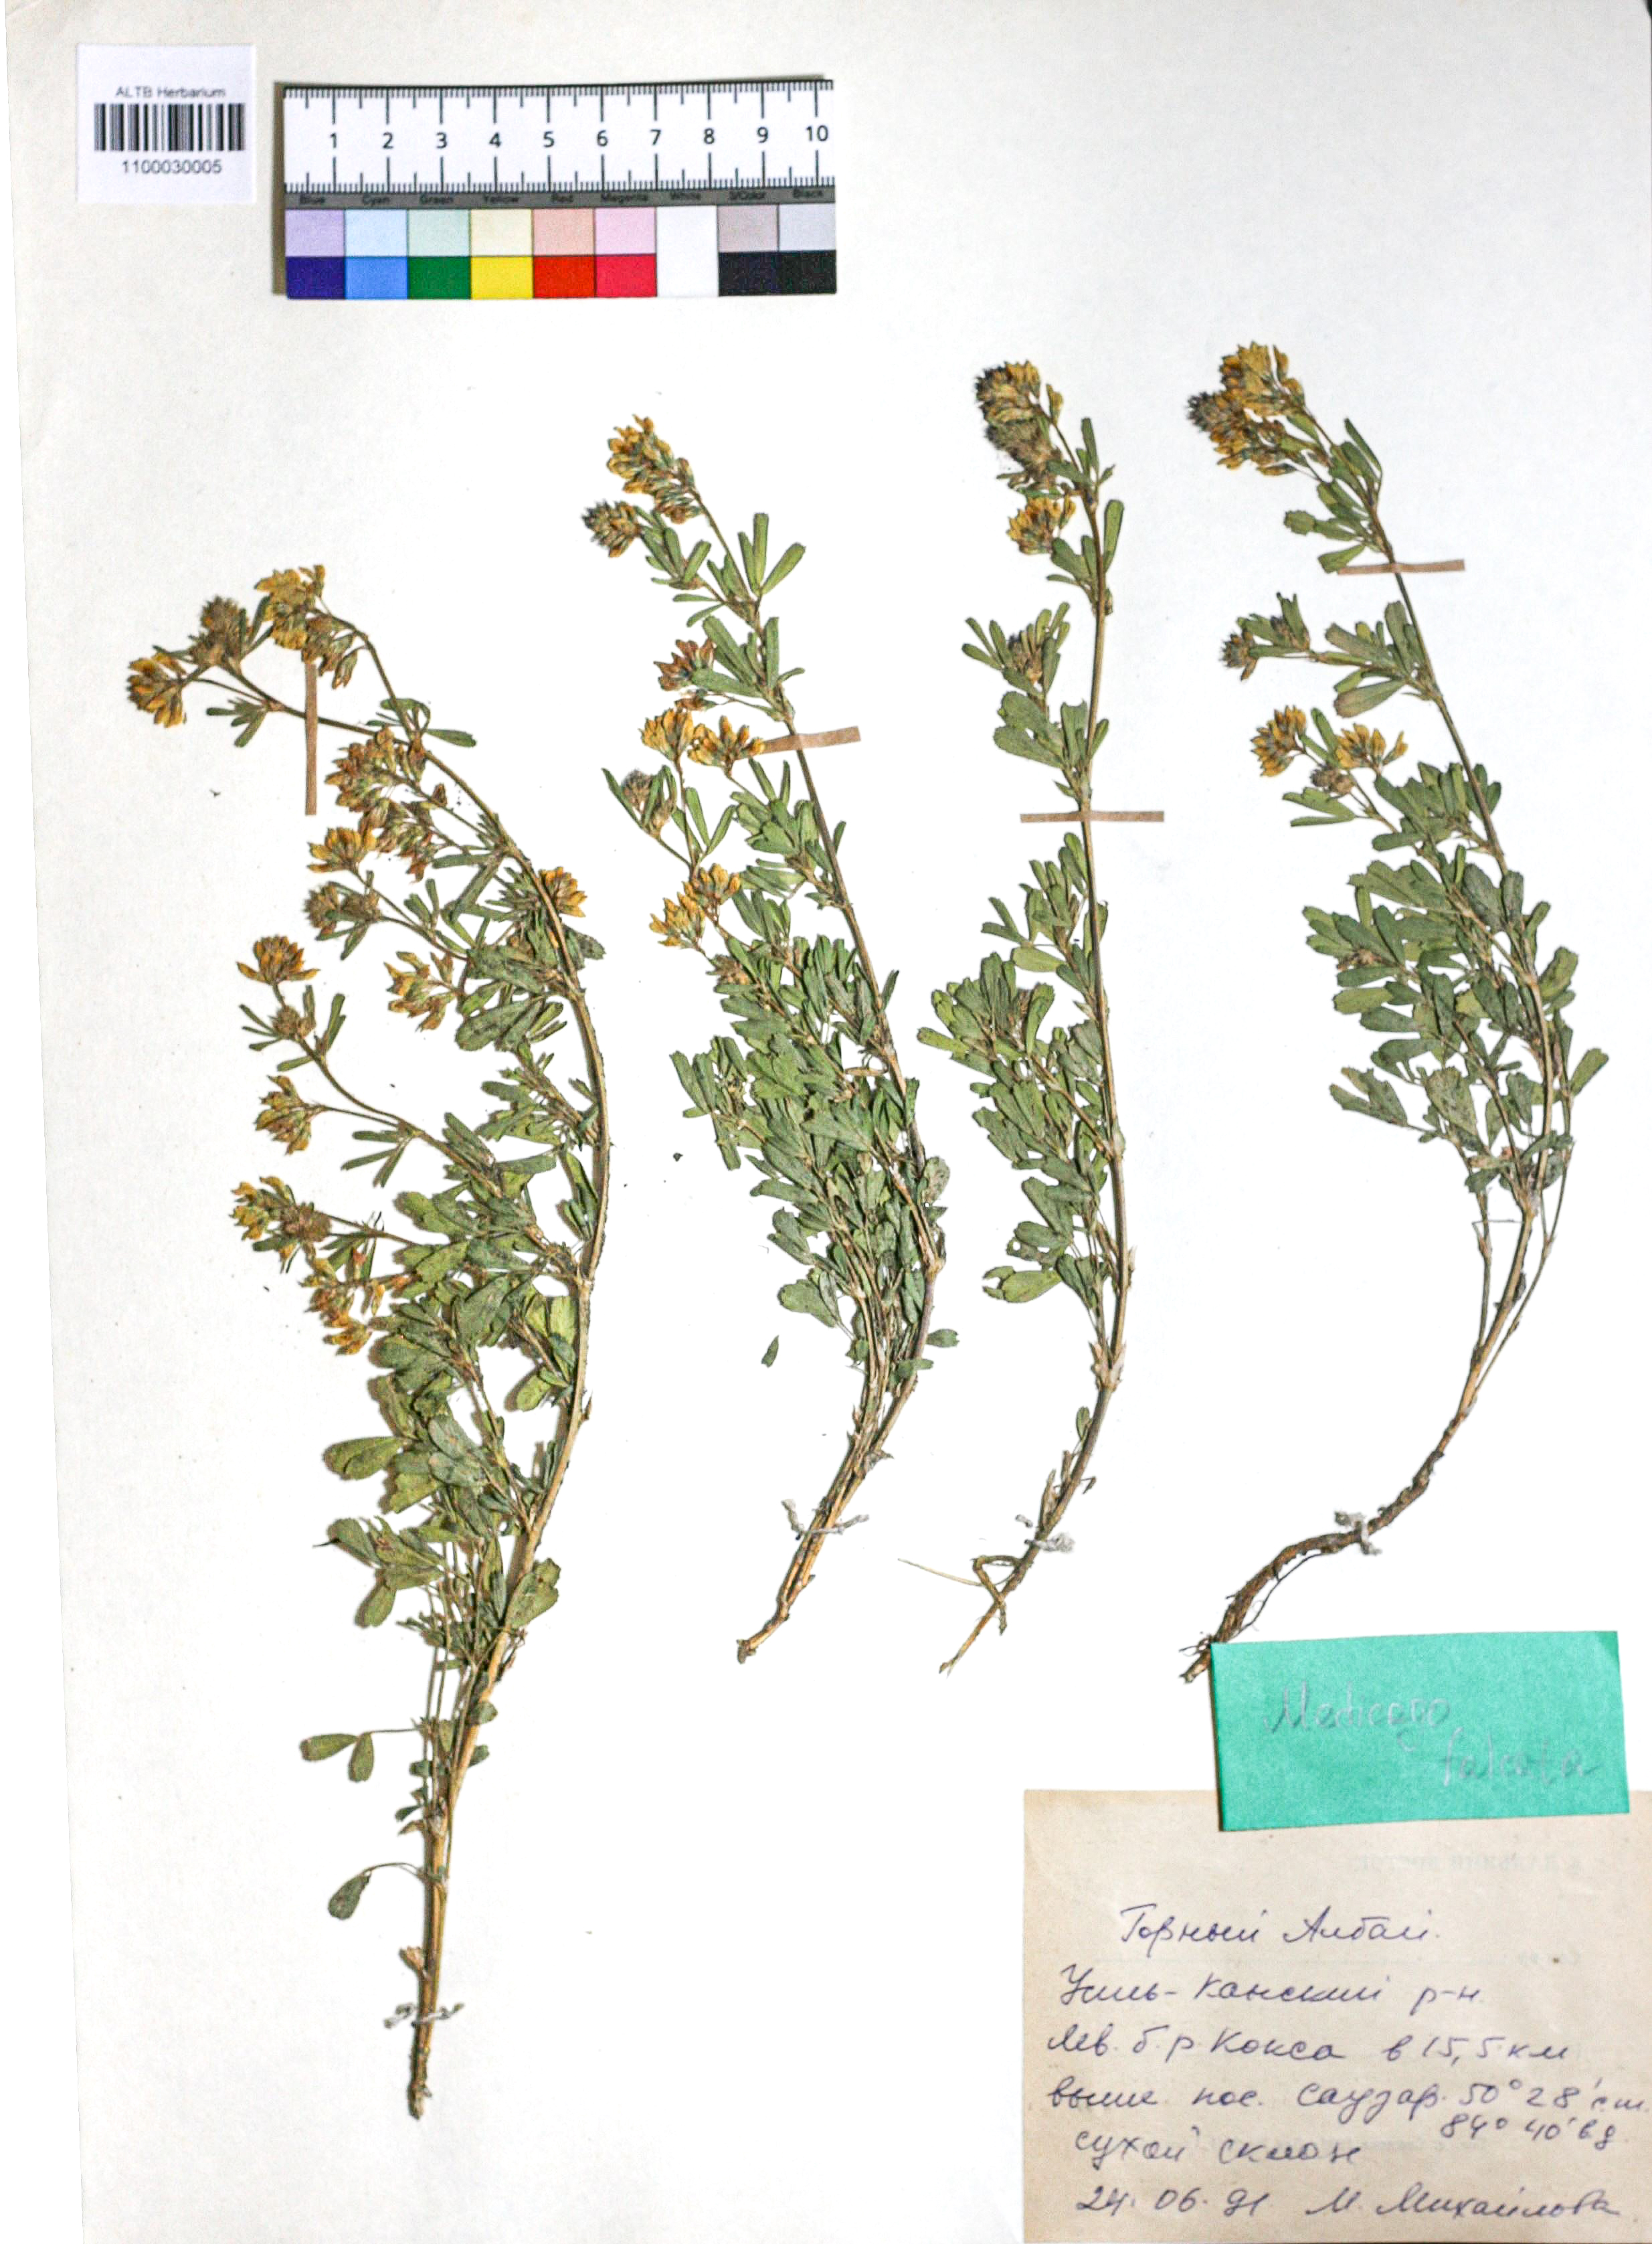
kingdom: Plantae
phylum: Tracheophyta
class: Magnoliopsida
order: Fabales
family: Fabaceae
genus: Medicago
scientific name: Medicago falcata
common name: Sickle medick
